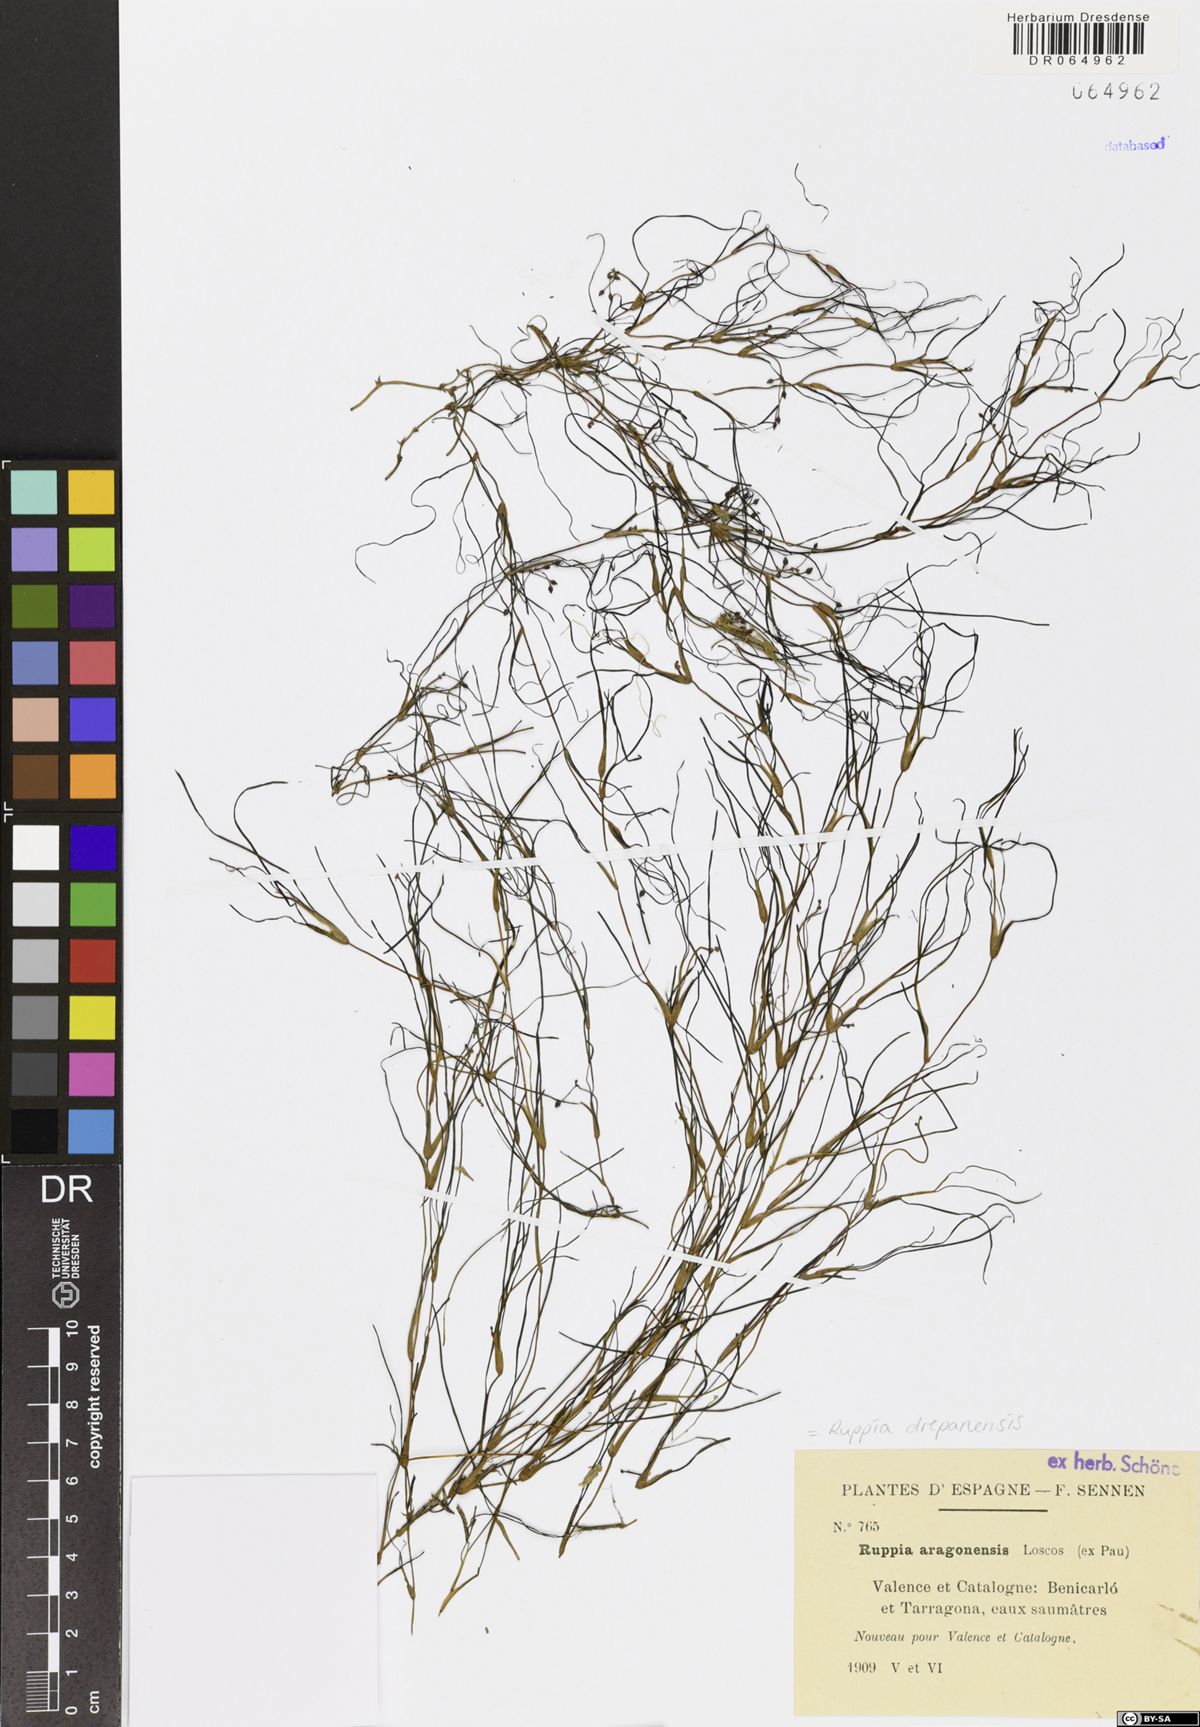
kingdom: Plantae
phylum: Tracheophyta
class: Liliopsida
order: Alismatales
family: Ruppiaceae
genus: Ruppia
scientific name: Ruppia drepanensis
